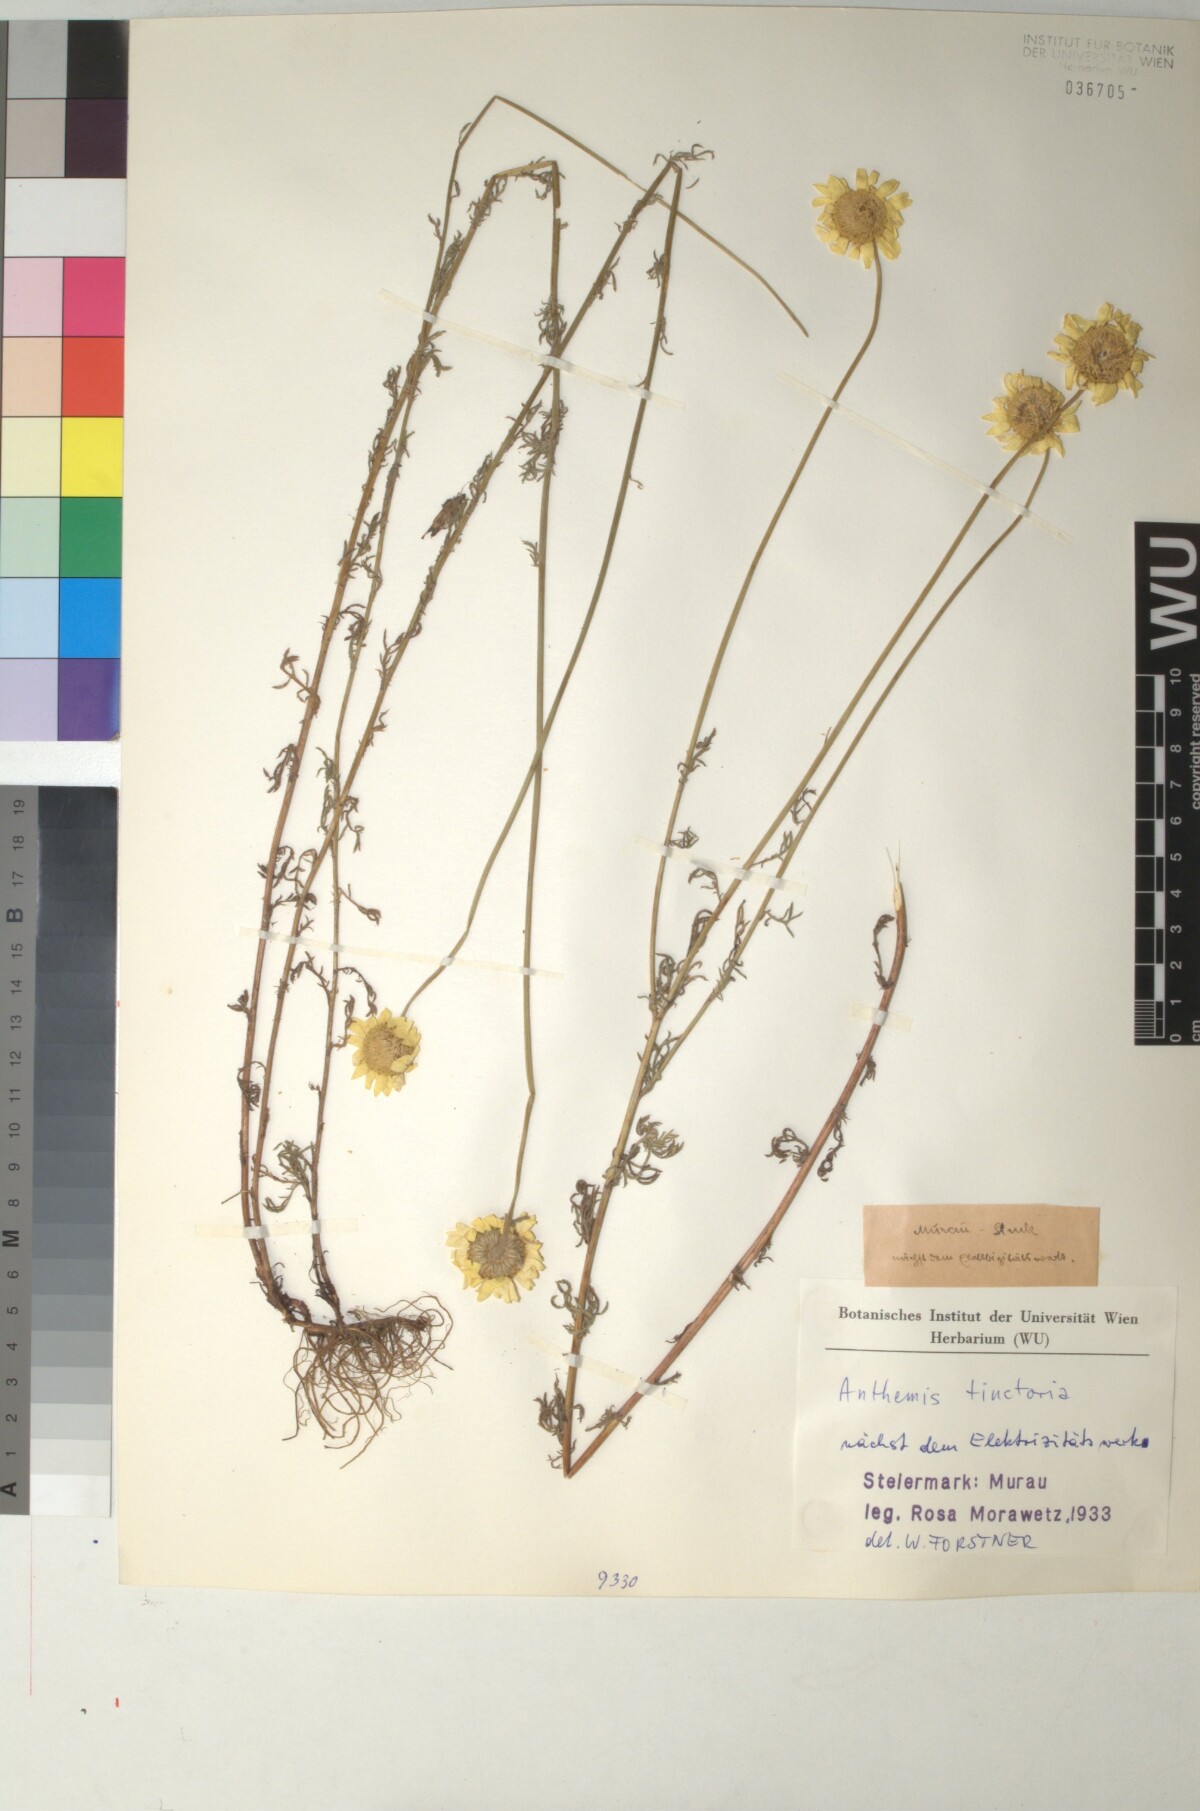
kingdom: Plantae
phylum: Tracheophyta
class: Magnoliopsida
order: Asterales
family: Asteraceae
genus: Cota
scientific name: Cota tinctoria
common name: Golden chamomile
